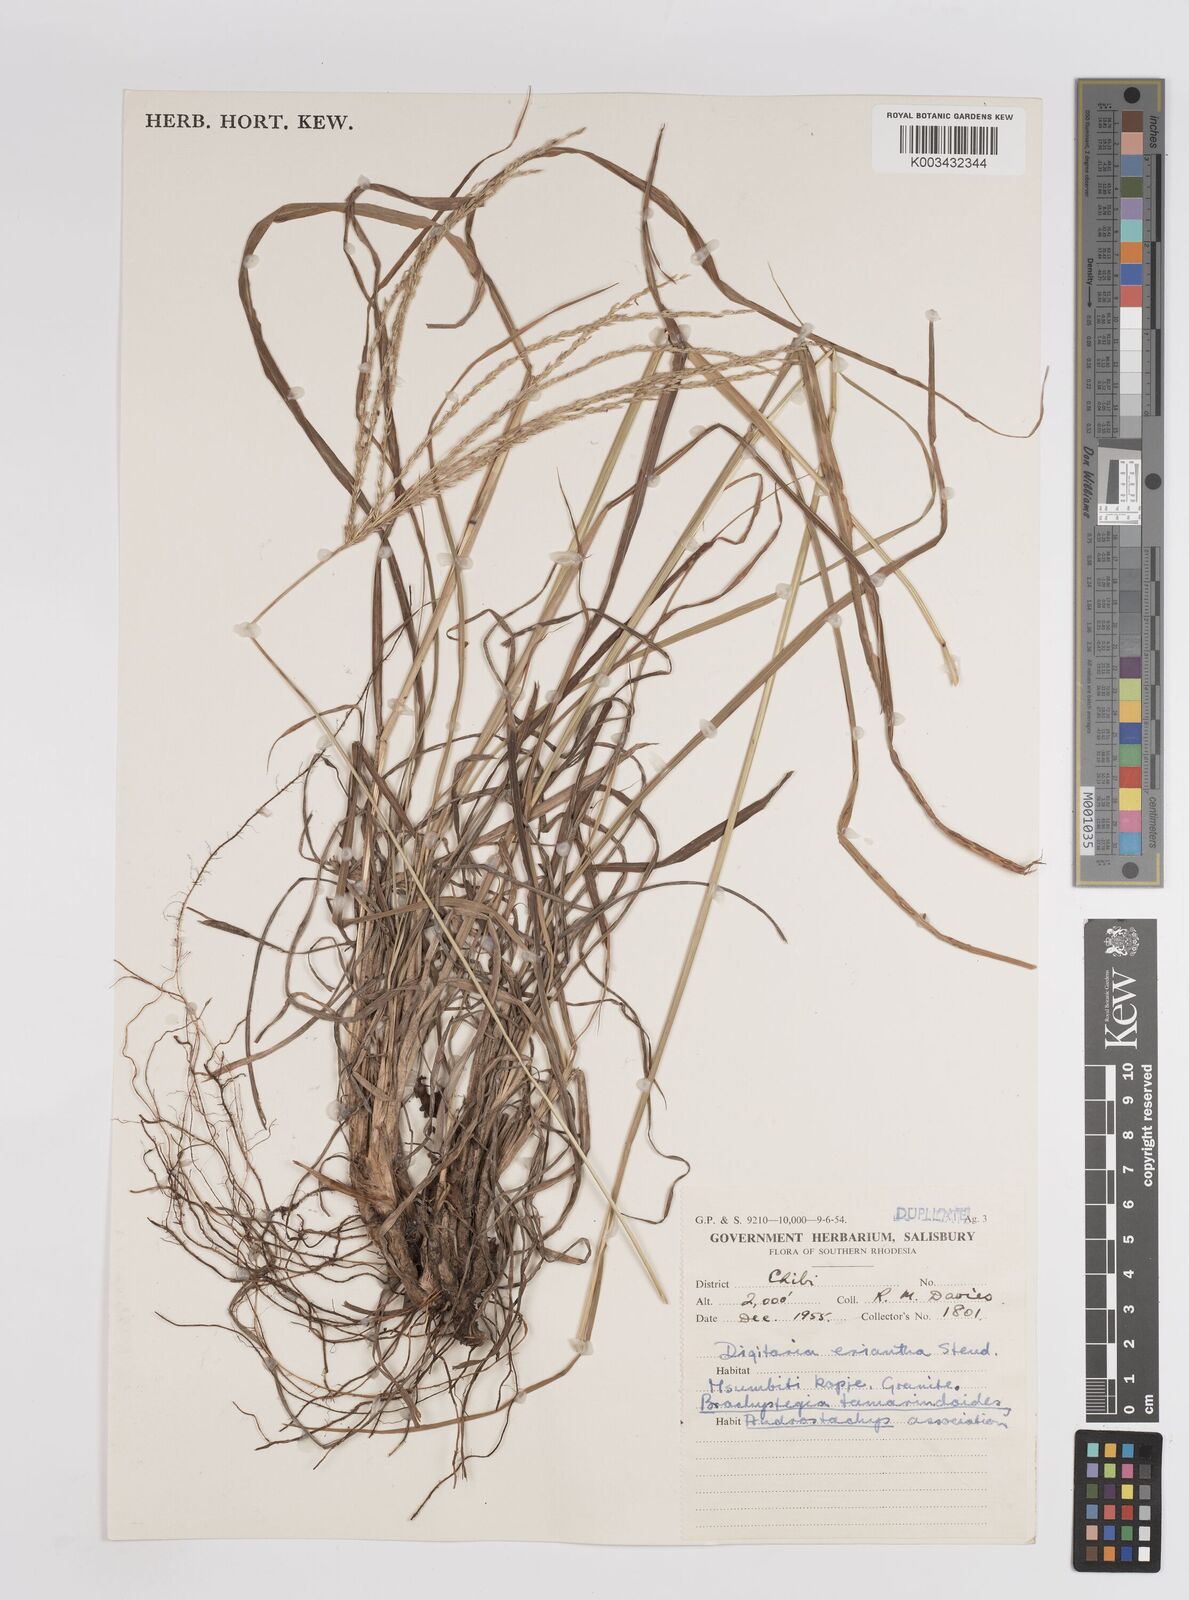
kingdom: Plantae
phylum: Tracheophyta
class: Liliopsida
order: Poales
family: Poaceae
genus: Digitaria
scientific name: Digitaria eriantha
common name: Digitgrass
